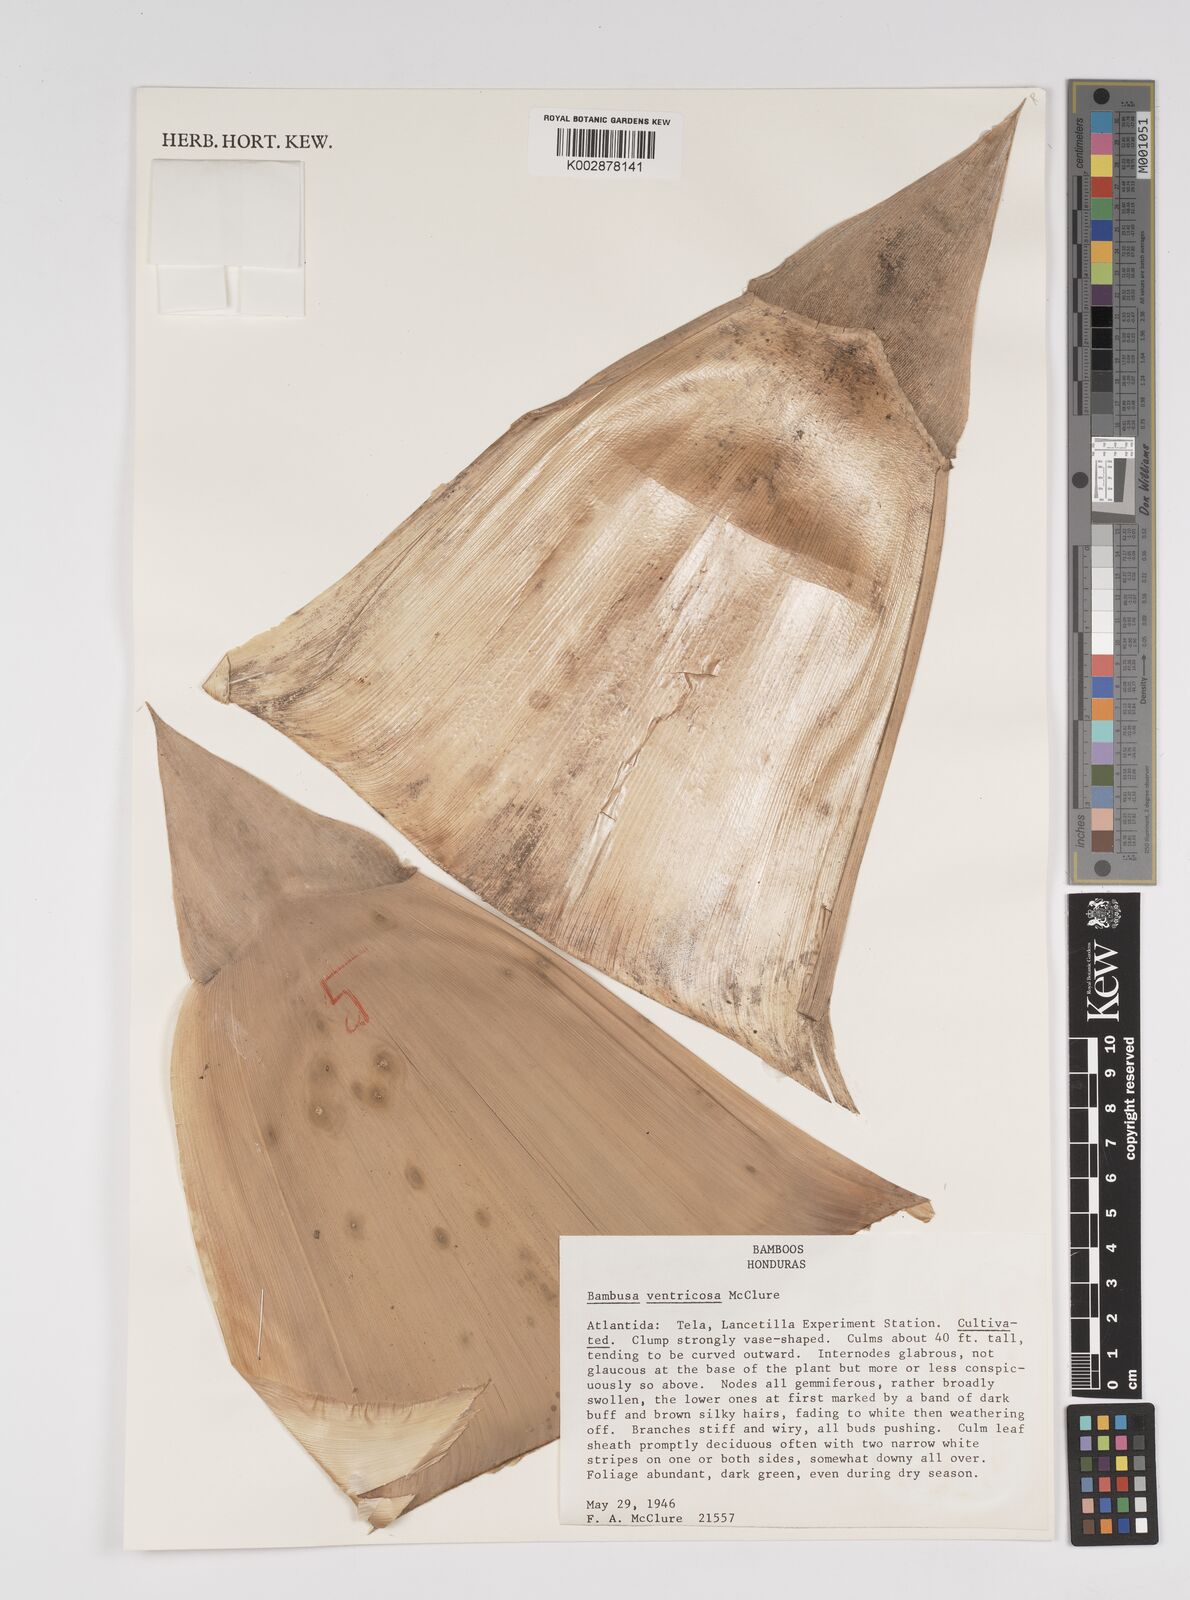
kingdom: Plantae
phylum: Tracheophyta
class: Liliopsida
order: Poales
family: Poaceae
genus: Bambusa
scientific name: Bambusa ventricosa
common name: Buddha bamboo
